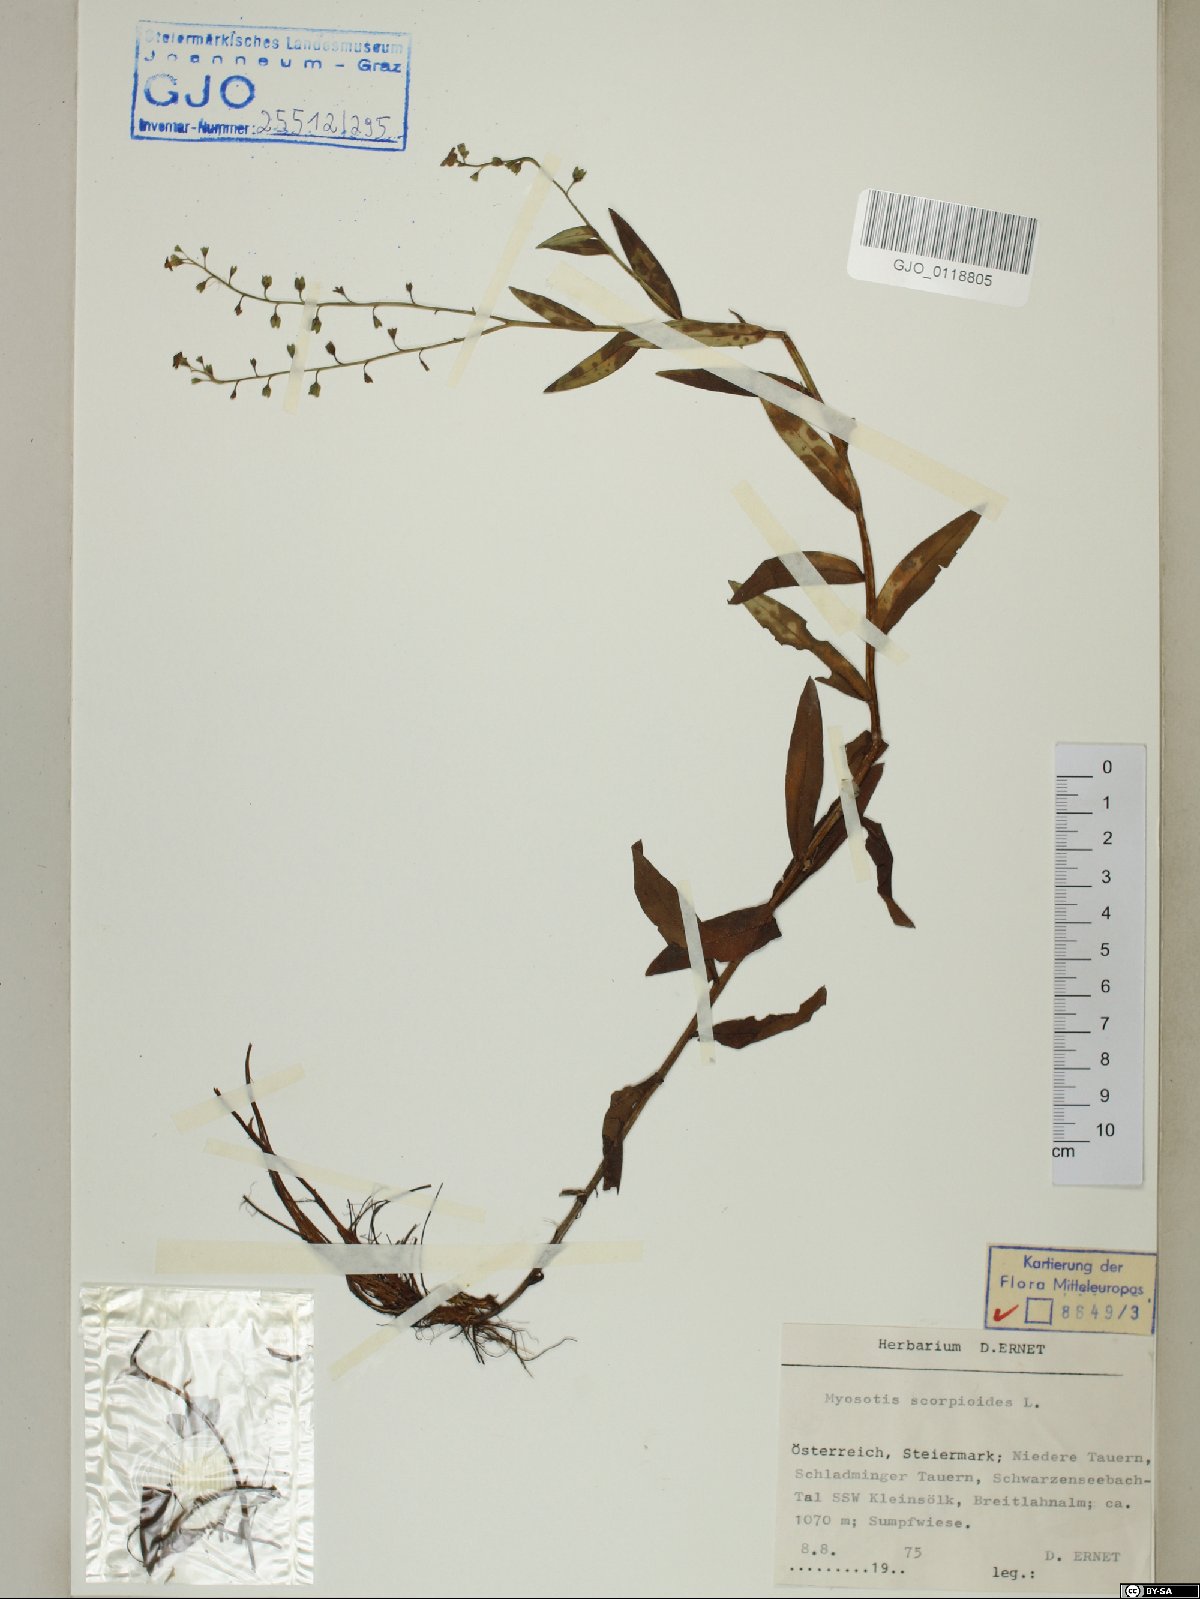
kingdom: Plantae
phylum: Tracheophyta
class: Magnoliopsida
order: Boraginales
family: Boraginaceae
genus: Myosotis
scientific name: Myosotis scorpioides
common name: Water forget-me-not
